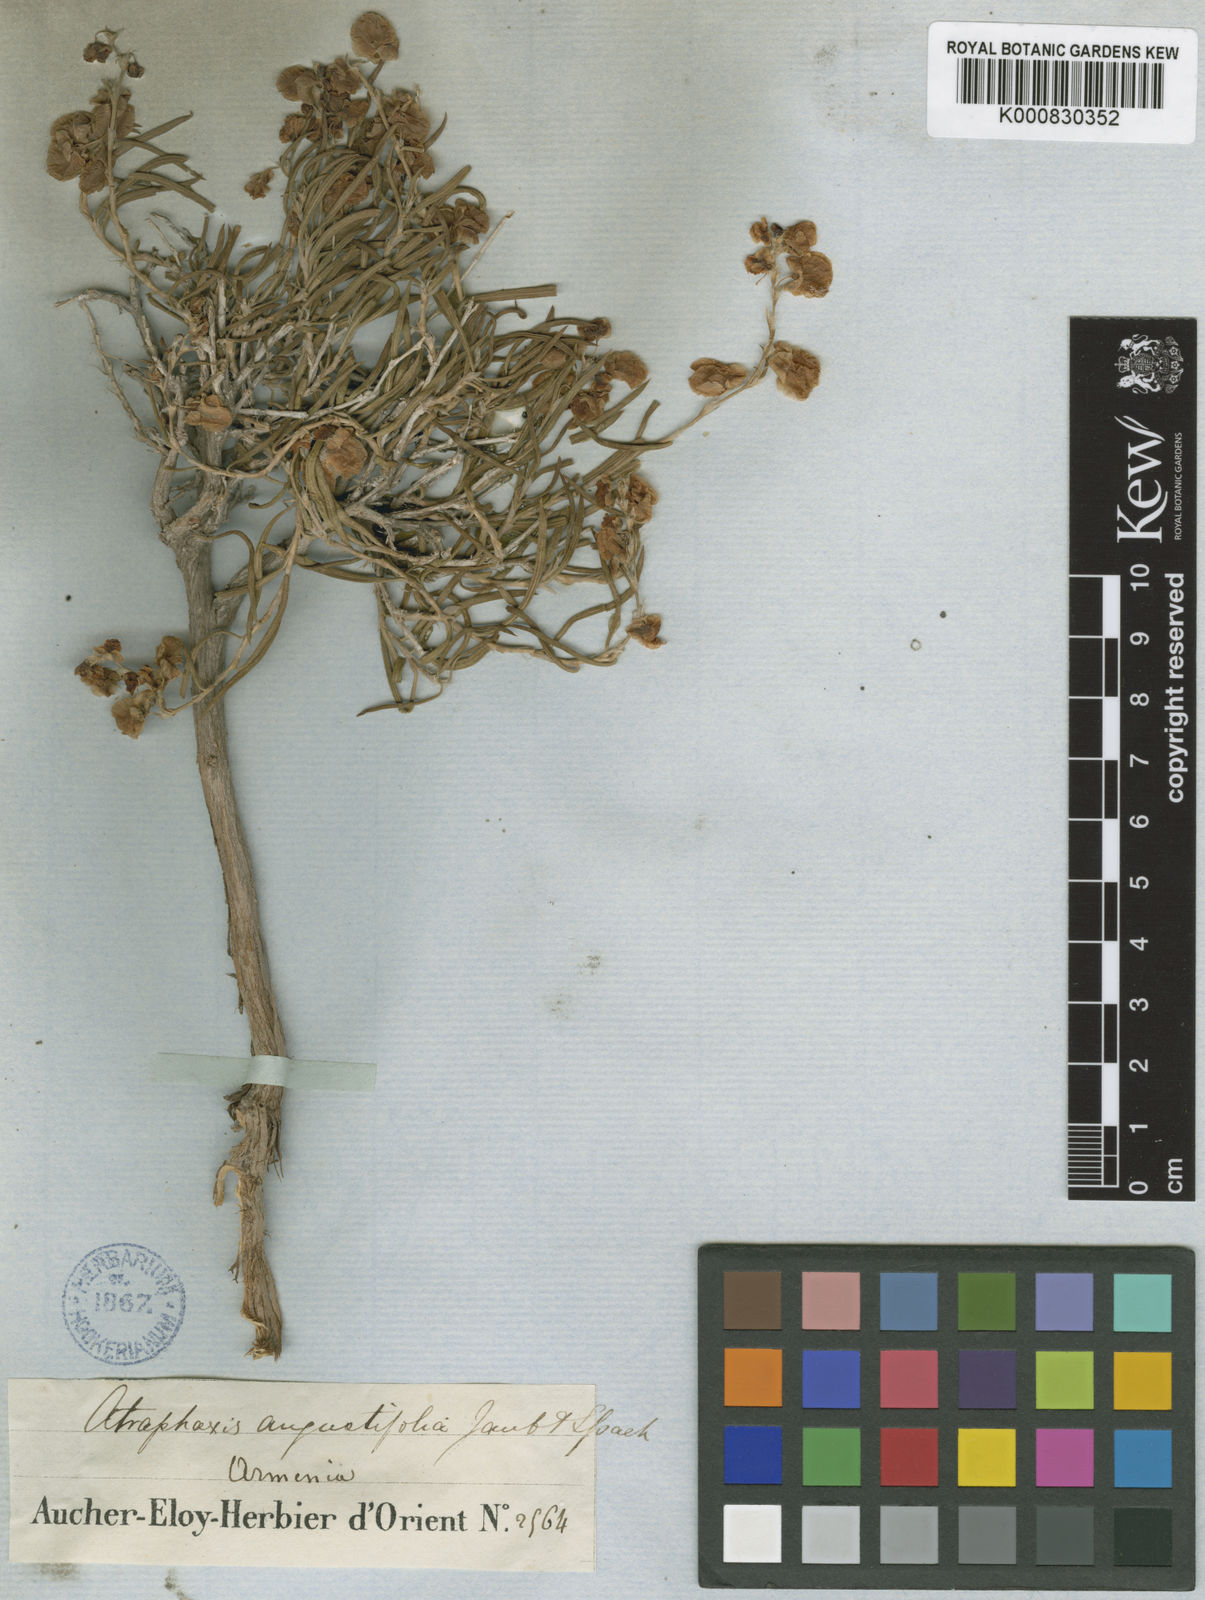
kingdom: Plantae
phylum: Tracheophyta
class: Magnoliopsida
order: Caryophyllales
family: Polygonaceae
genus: Atraphaxis
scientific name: Atraphaxis angustifolia
